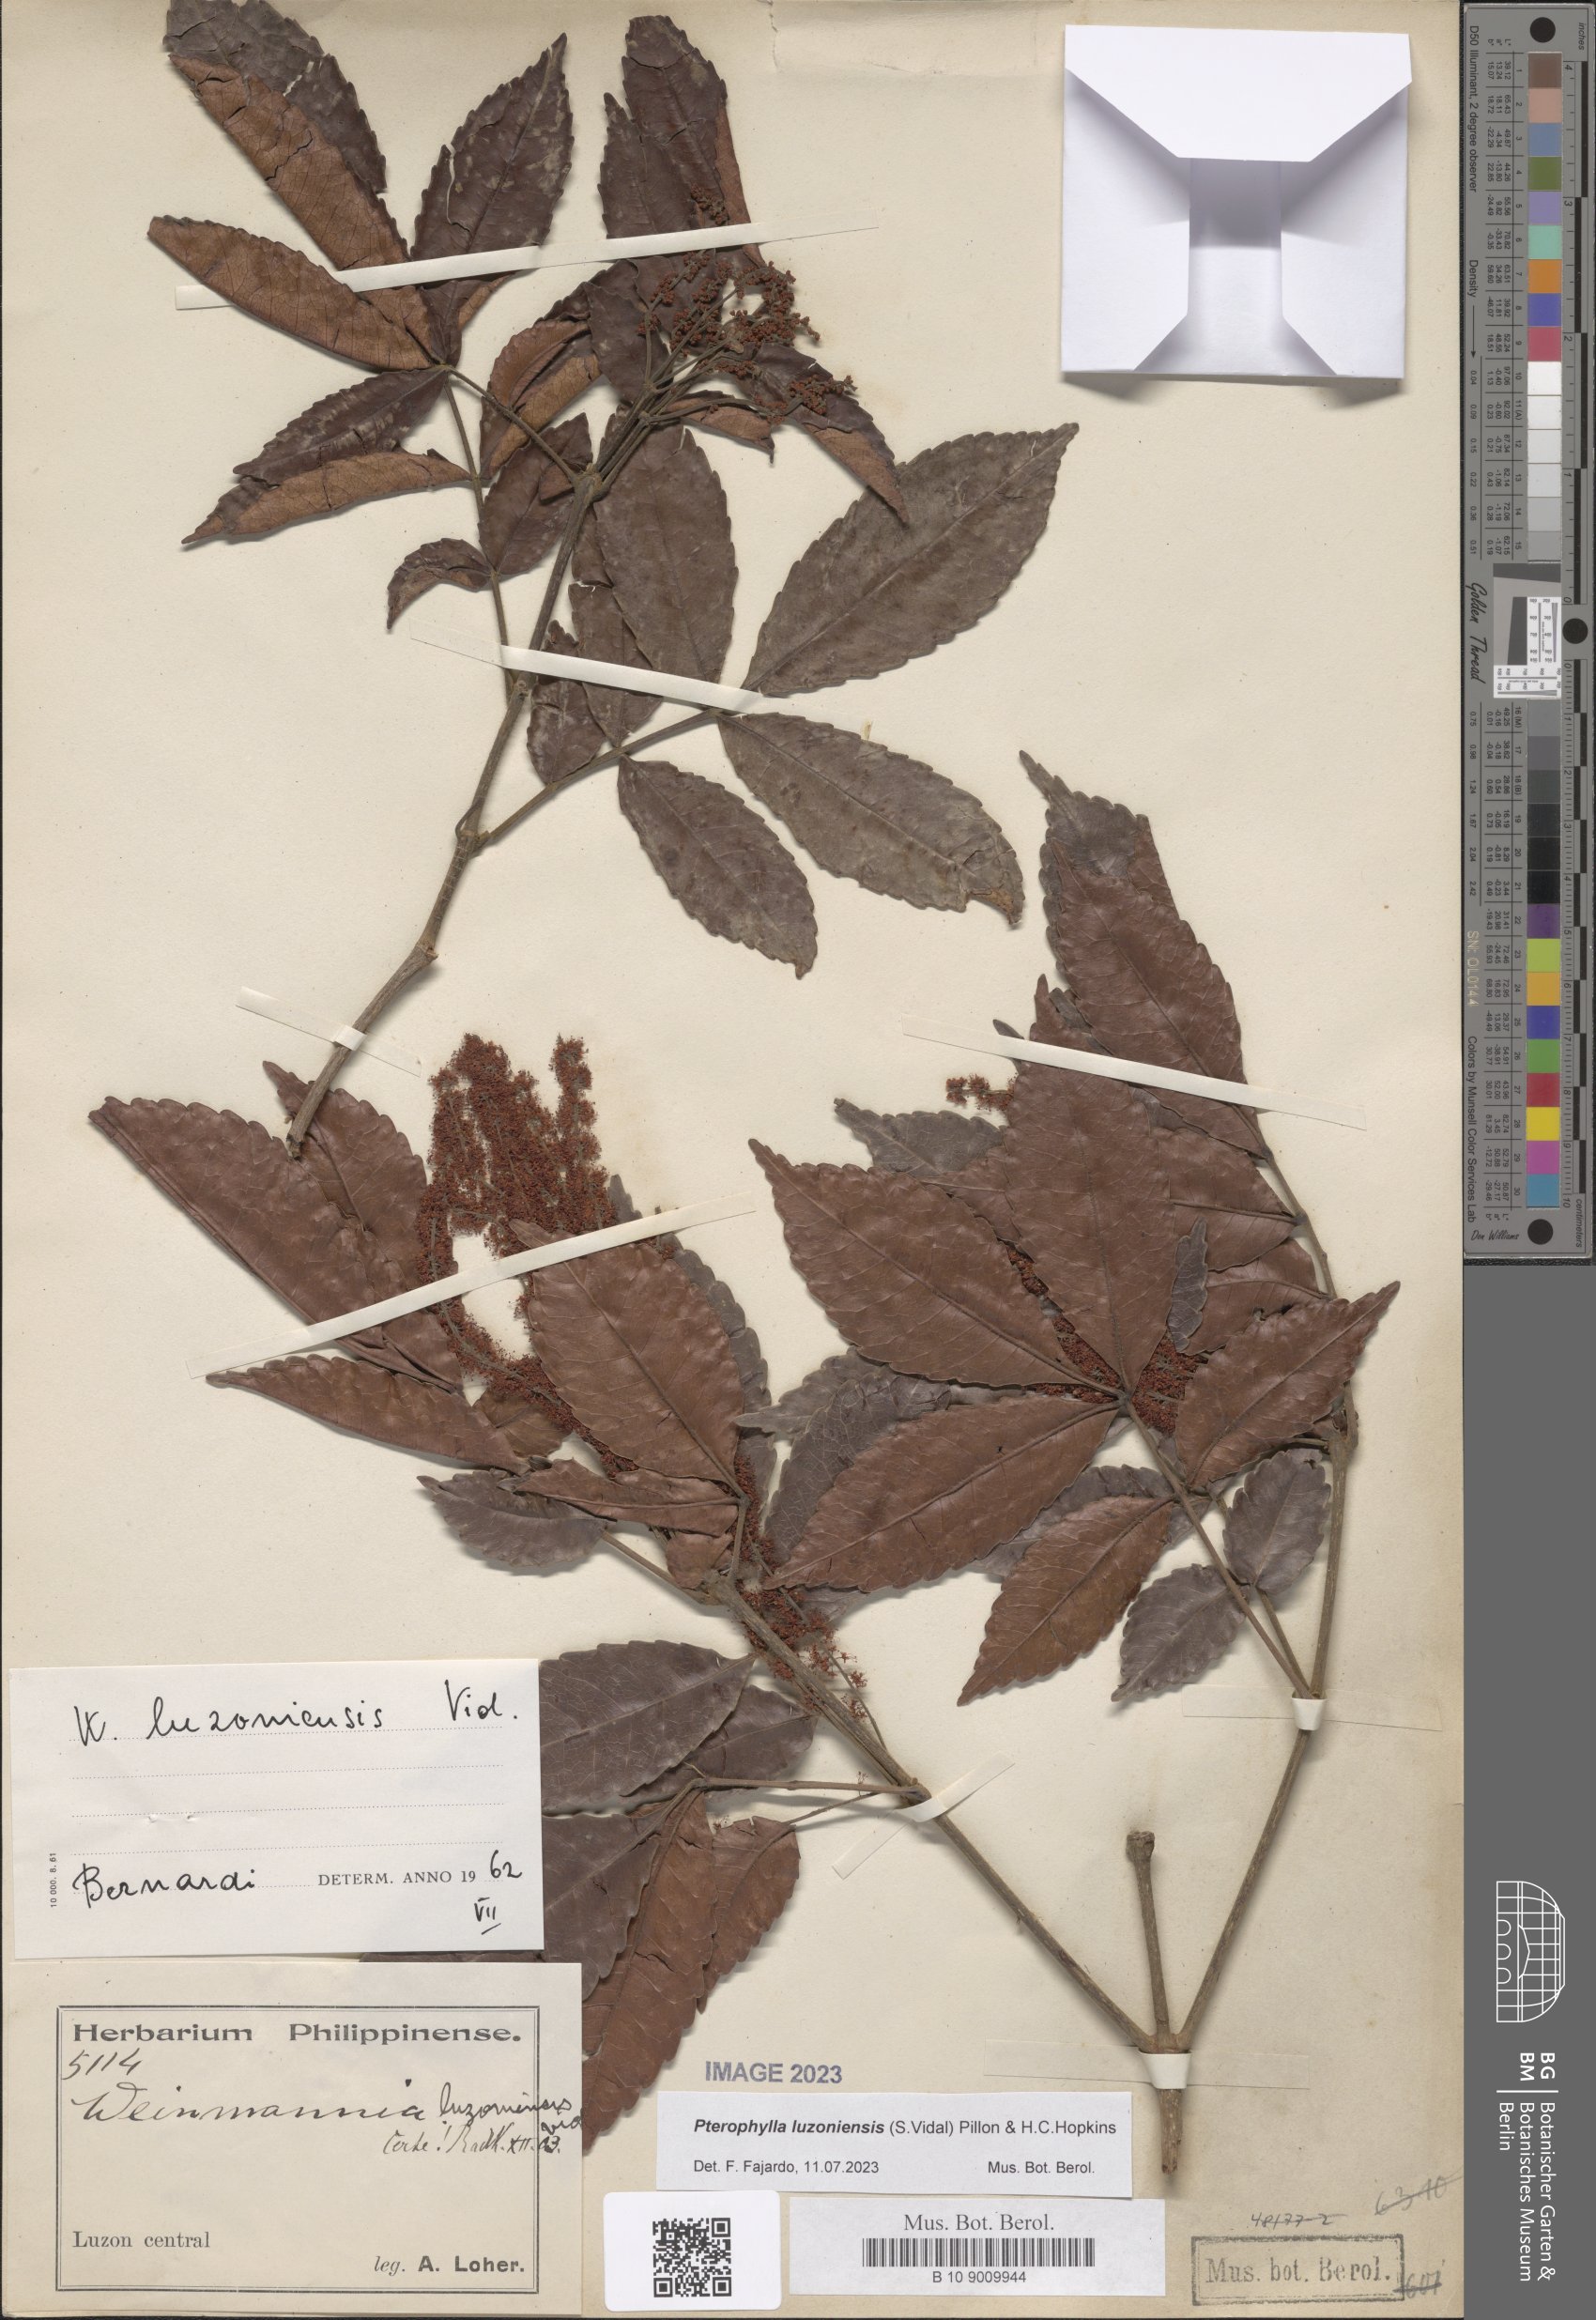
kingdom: Plantae
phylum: Tracheophyta
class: Magnoliopsida
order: Oxalidales
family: Cunoniaceae
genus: Pterophylla
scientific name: Pterophylla luzoniensis
